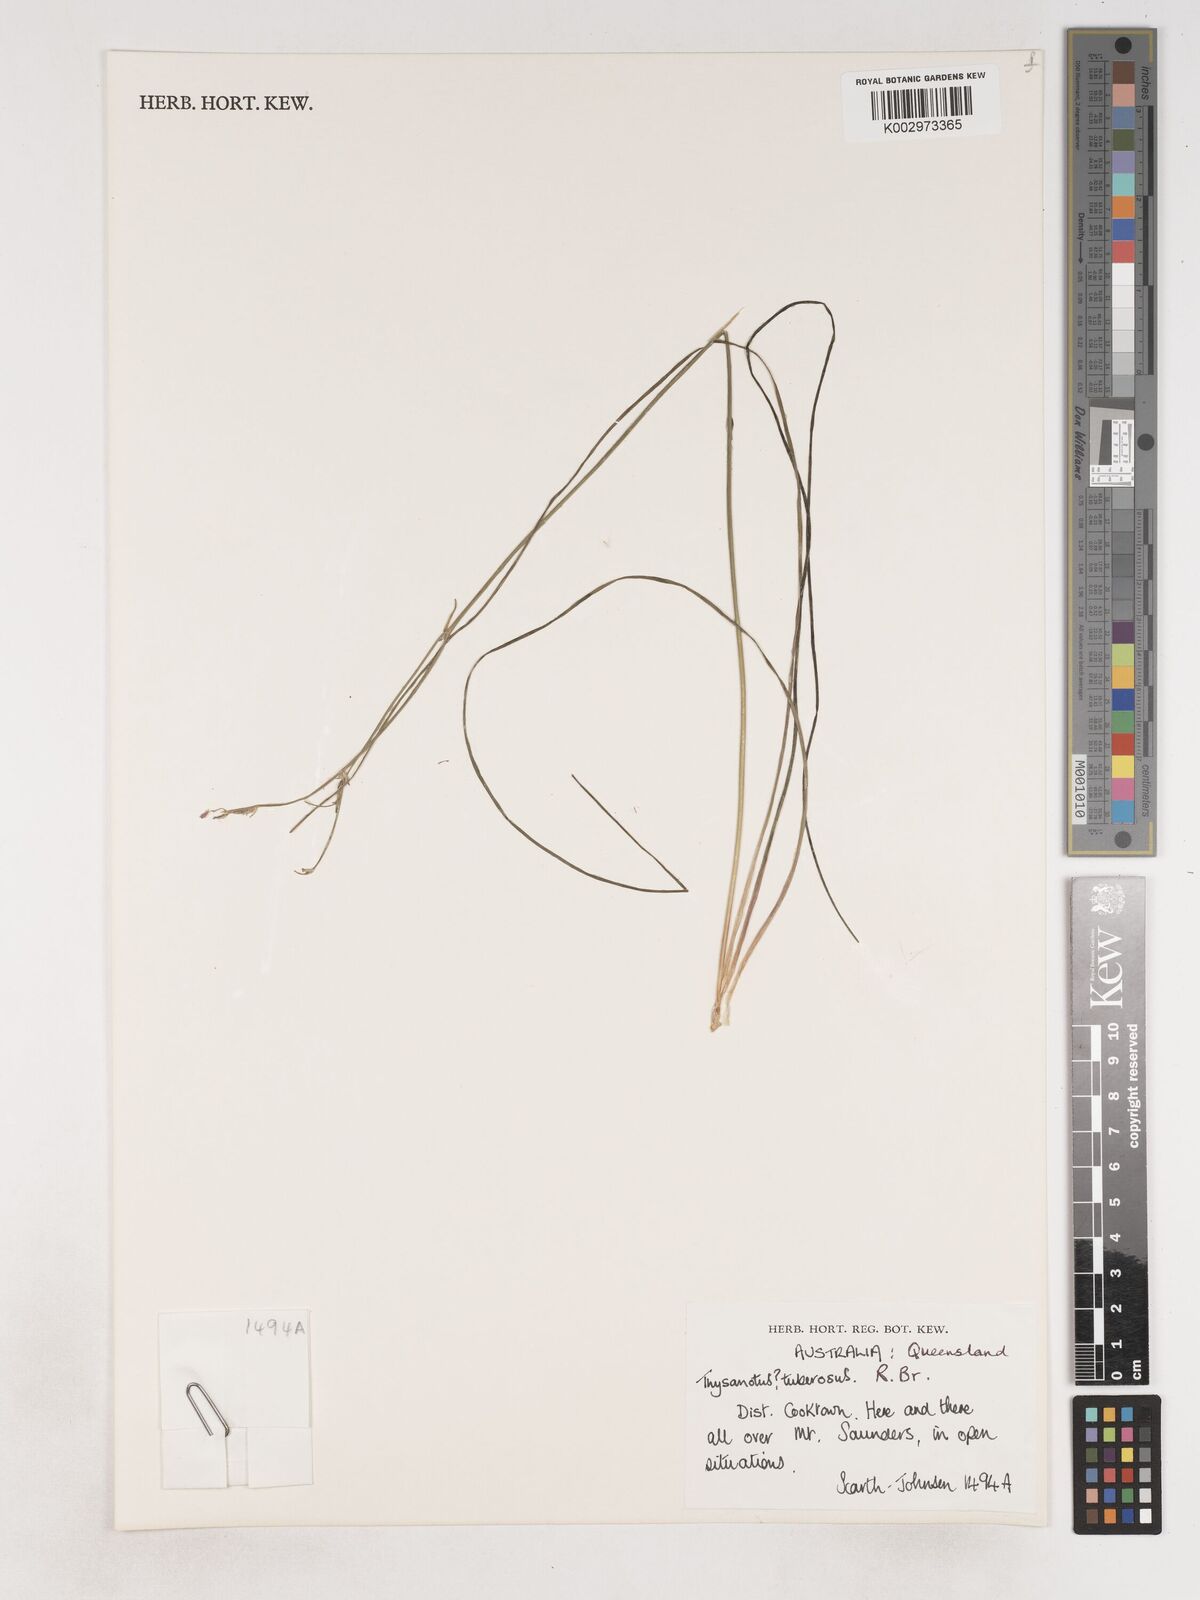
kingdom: Plantae
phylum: Tracheophyta
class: Liliopsida
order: Asparagales
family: Asparagaceae
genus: Thysanotus
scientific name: Thysanotus tuberosus
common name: Common fringed-lily
